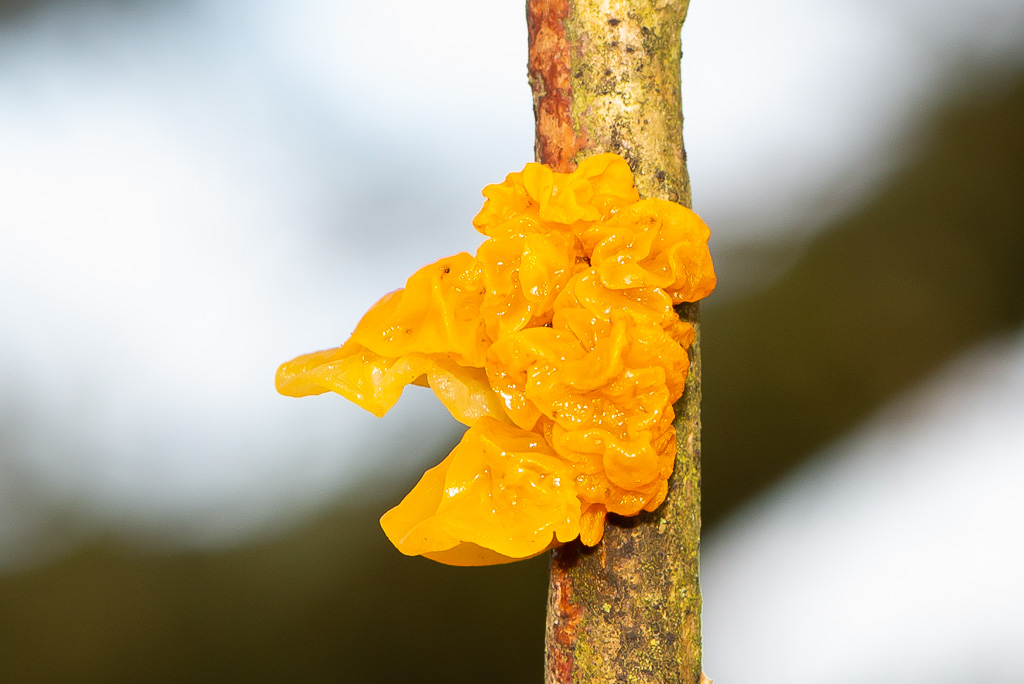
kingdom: Fungi
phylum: Basidiomycota
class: Tremellomycetes
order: Tremellales
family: Tremellaceae
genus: Tremella
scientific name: Tremella mesenterica
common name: gul bævresvamp
